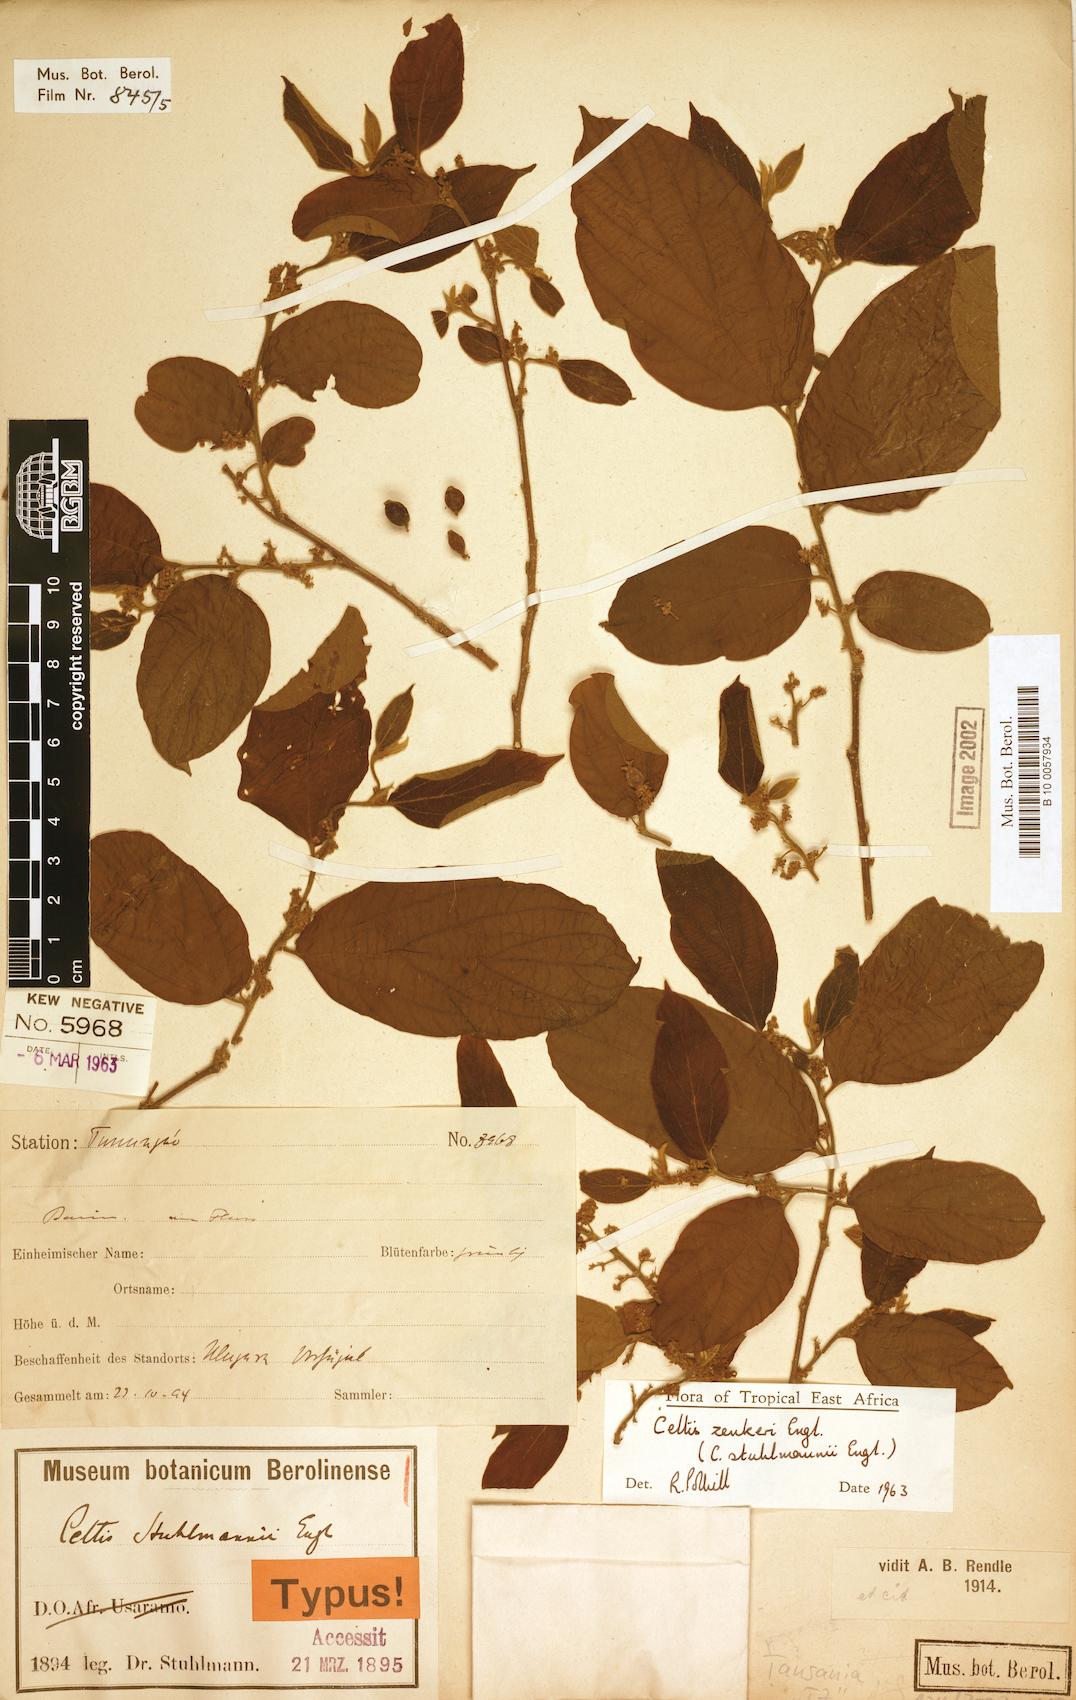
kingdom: Plantae
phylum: Tracheophyta
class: Magnoliopsida
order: Rosales
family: Cannabaceae
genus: Celtis
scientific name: Celtis zenkeri
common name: African celtis
